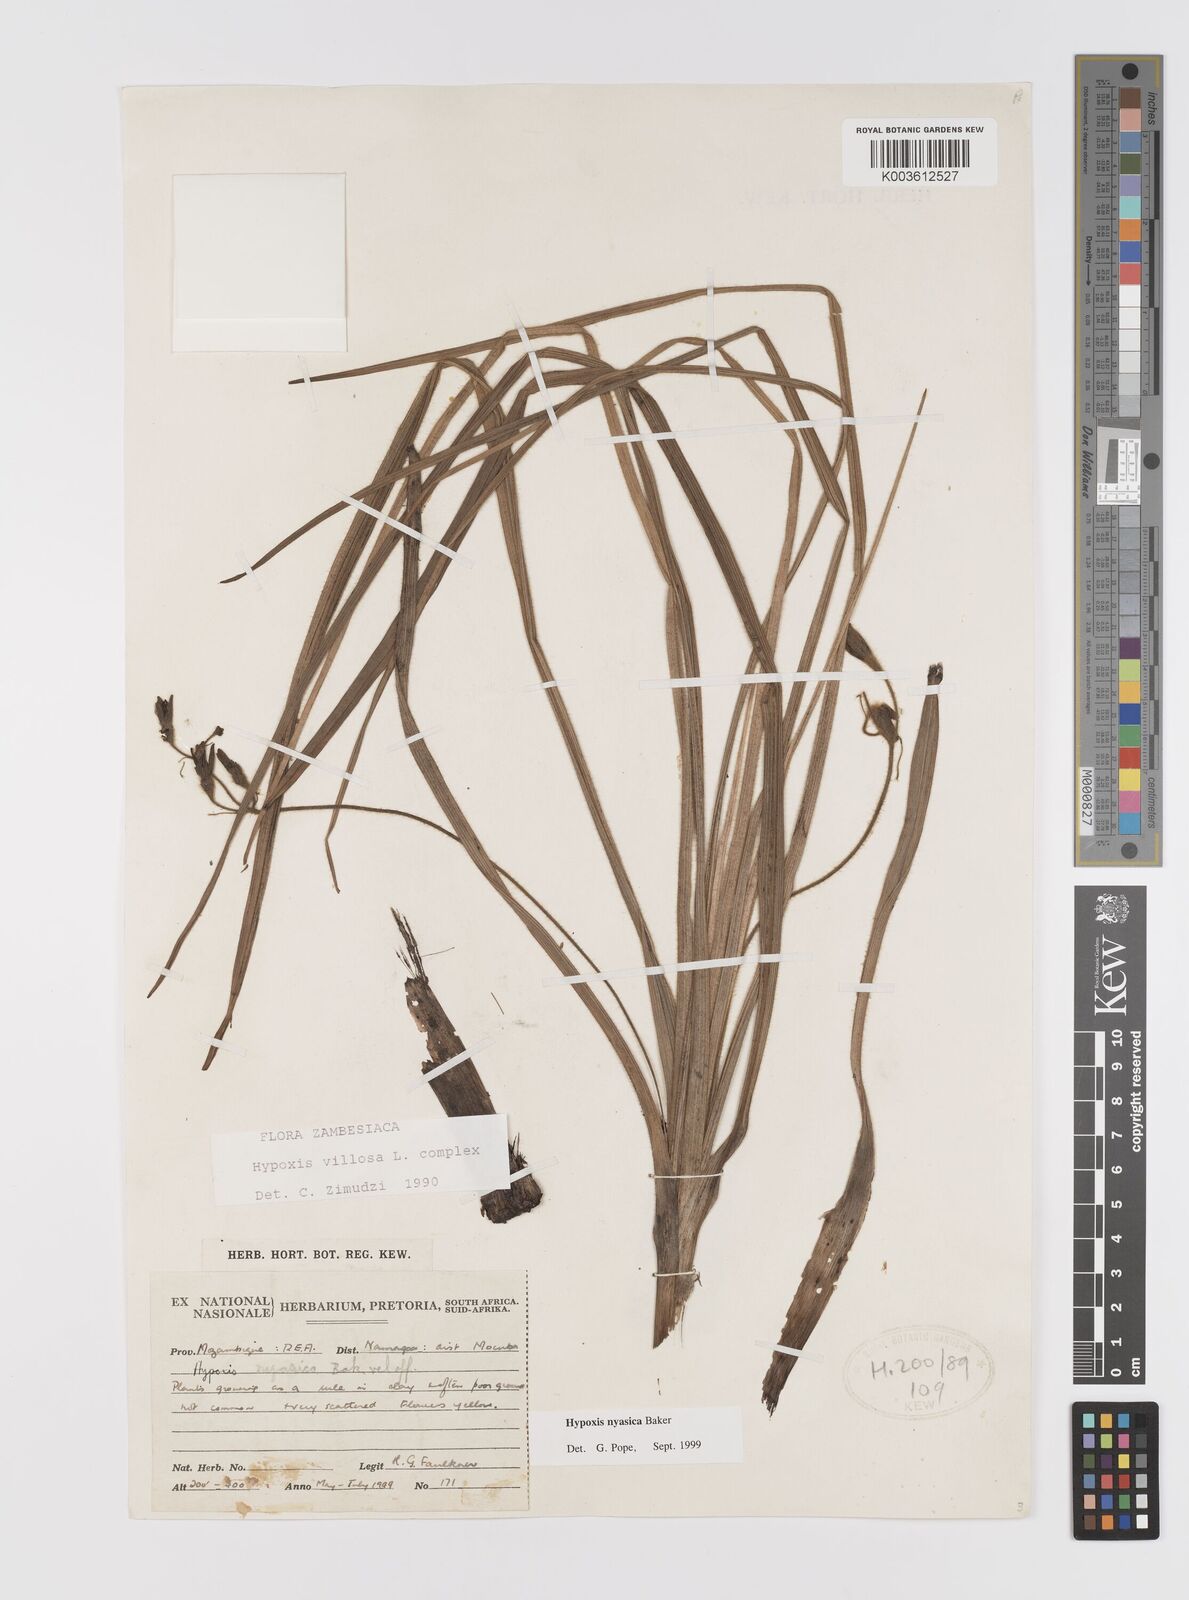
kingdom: Plantae
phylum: Tracheophyta
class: Liliopsida
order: Asparagales
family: Hypoxidaceae
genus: Hypoxis
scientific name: Hypoxis nyasica
